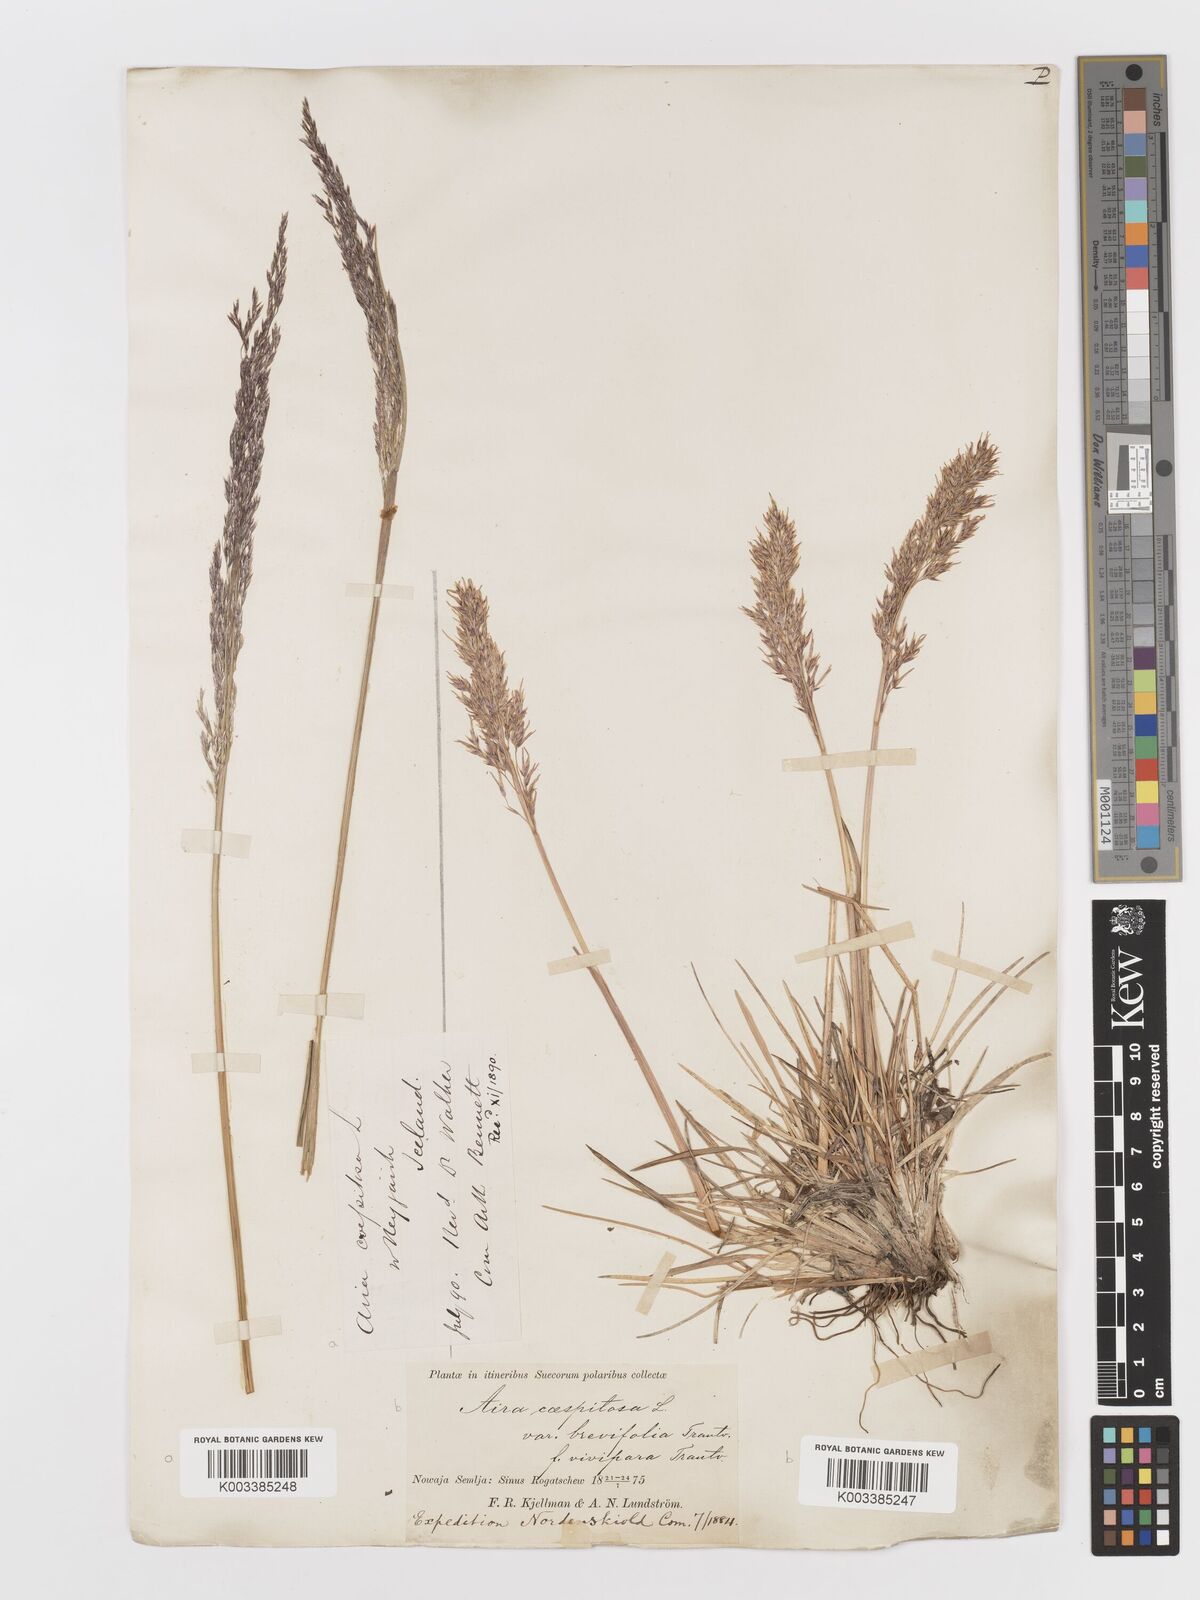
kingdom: Plantae
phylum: Tracheophyta
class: Liliopsida
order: Poales
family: Poaceae
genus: Deschampsia
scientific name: Deschampsia cespitosa
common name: Tufted hair-grass
